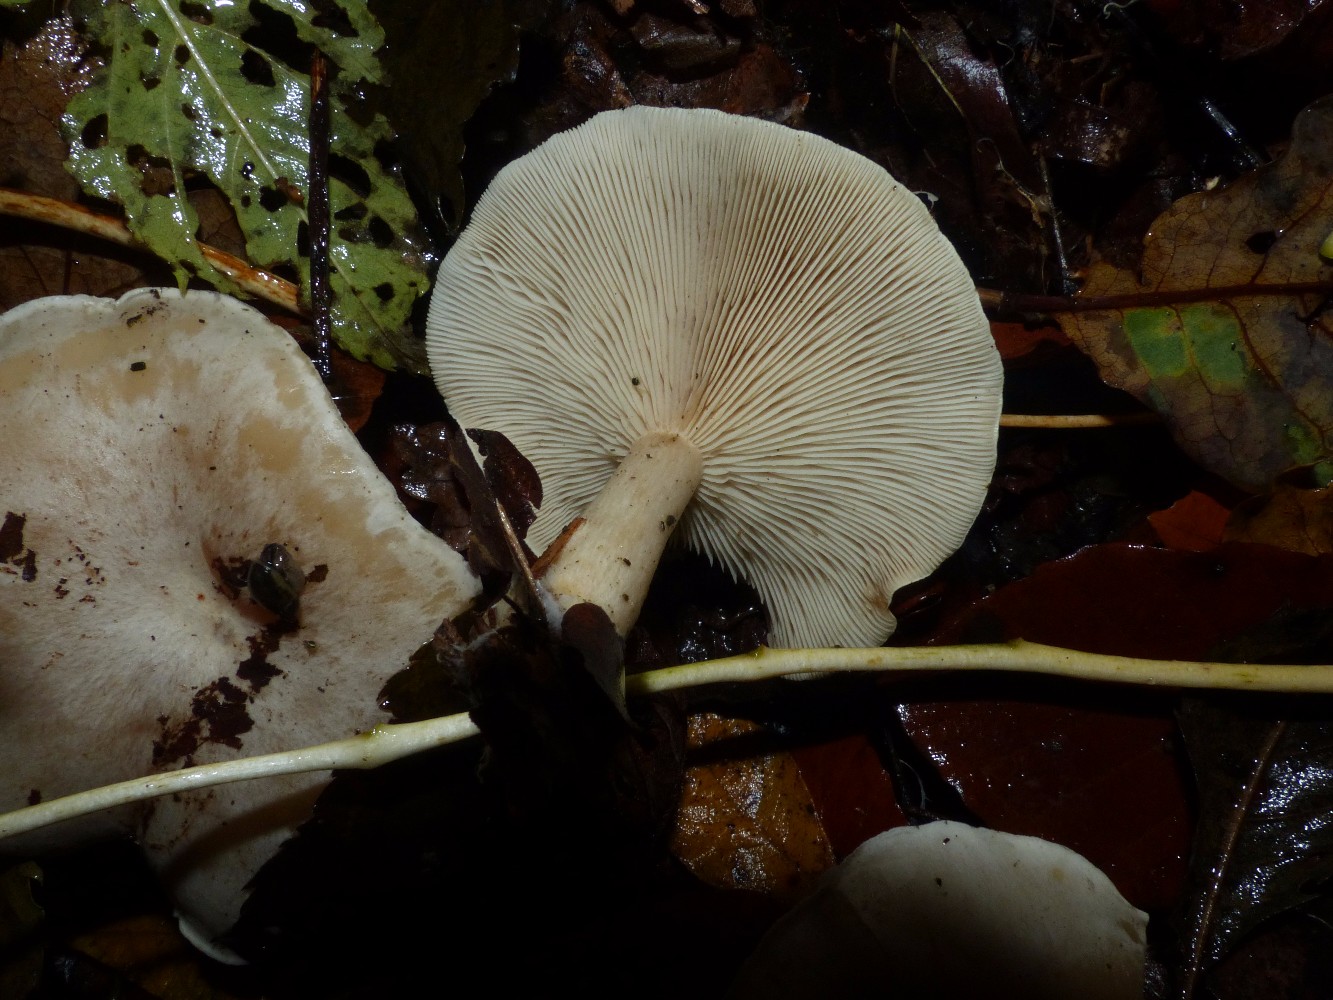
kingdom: Fungi
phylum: Basidiomycota
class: Agaricomycetes
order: Agaricales
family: Tricholomataceae
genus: Clitocybe
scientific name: Clitocybe phyllophila
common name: løv-tragthat
